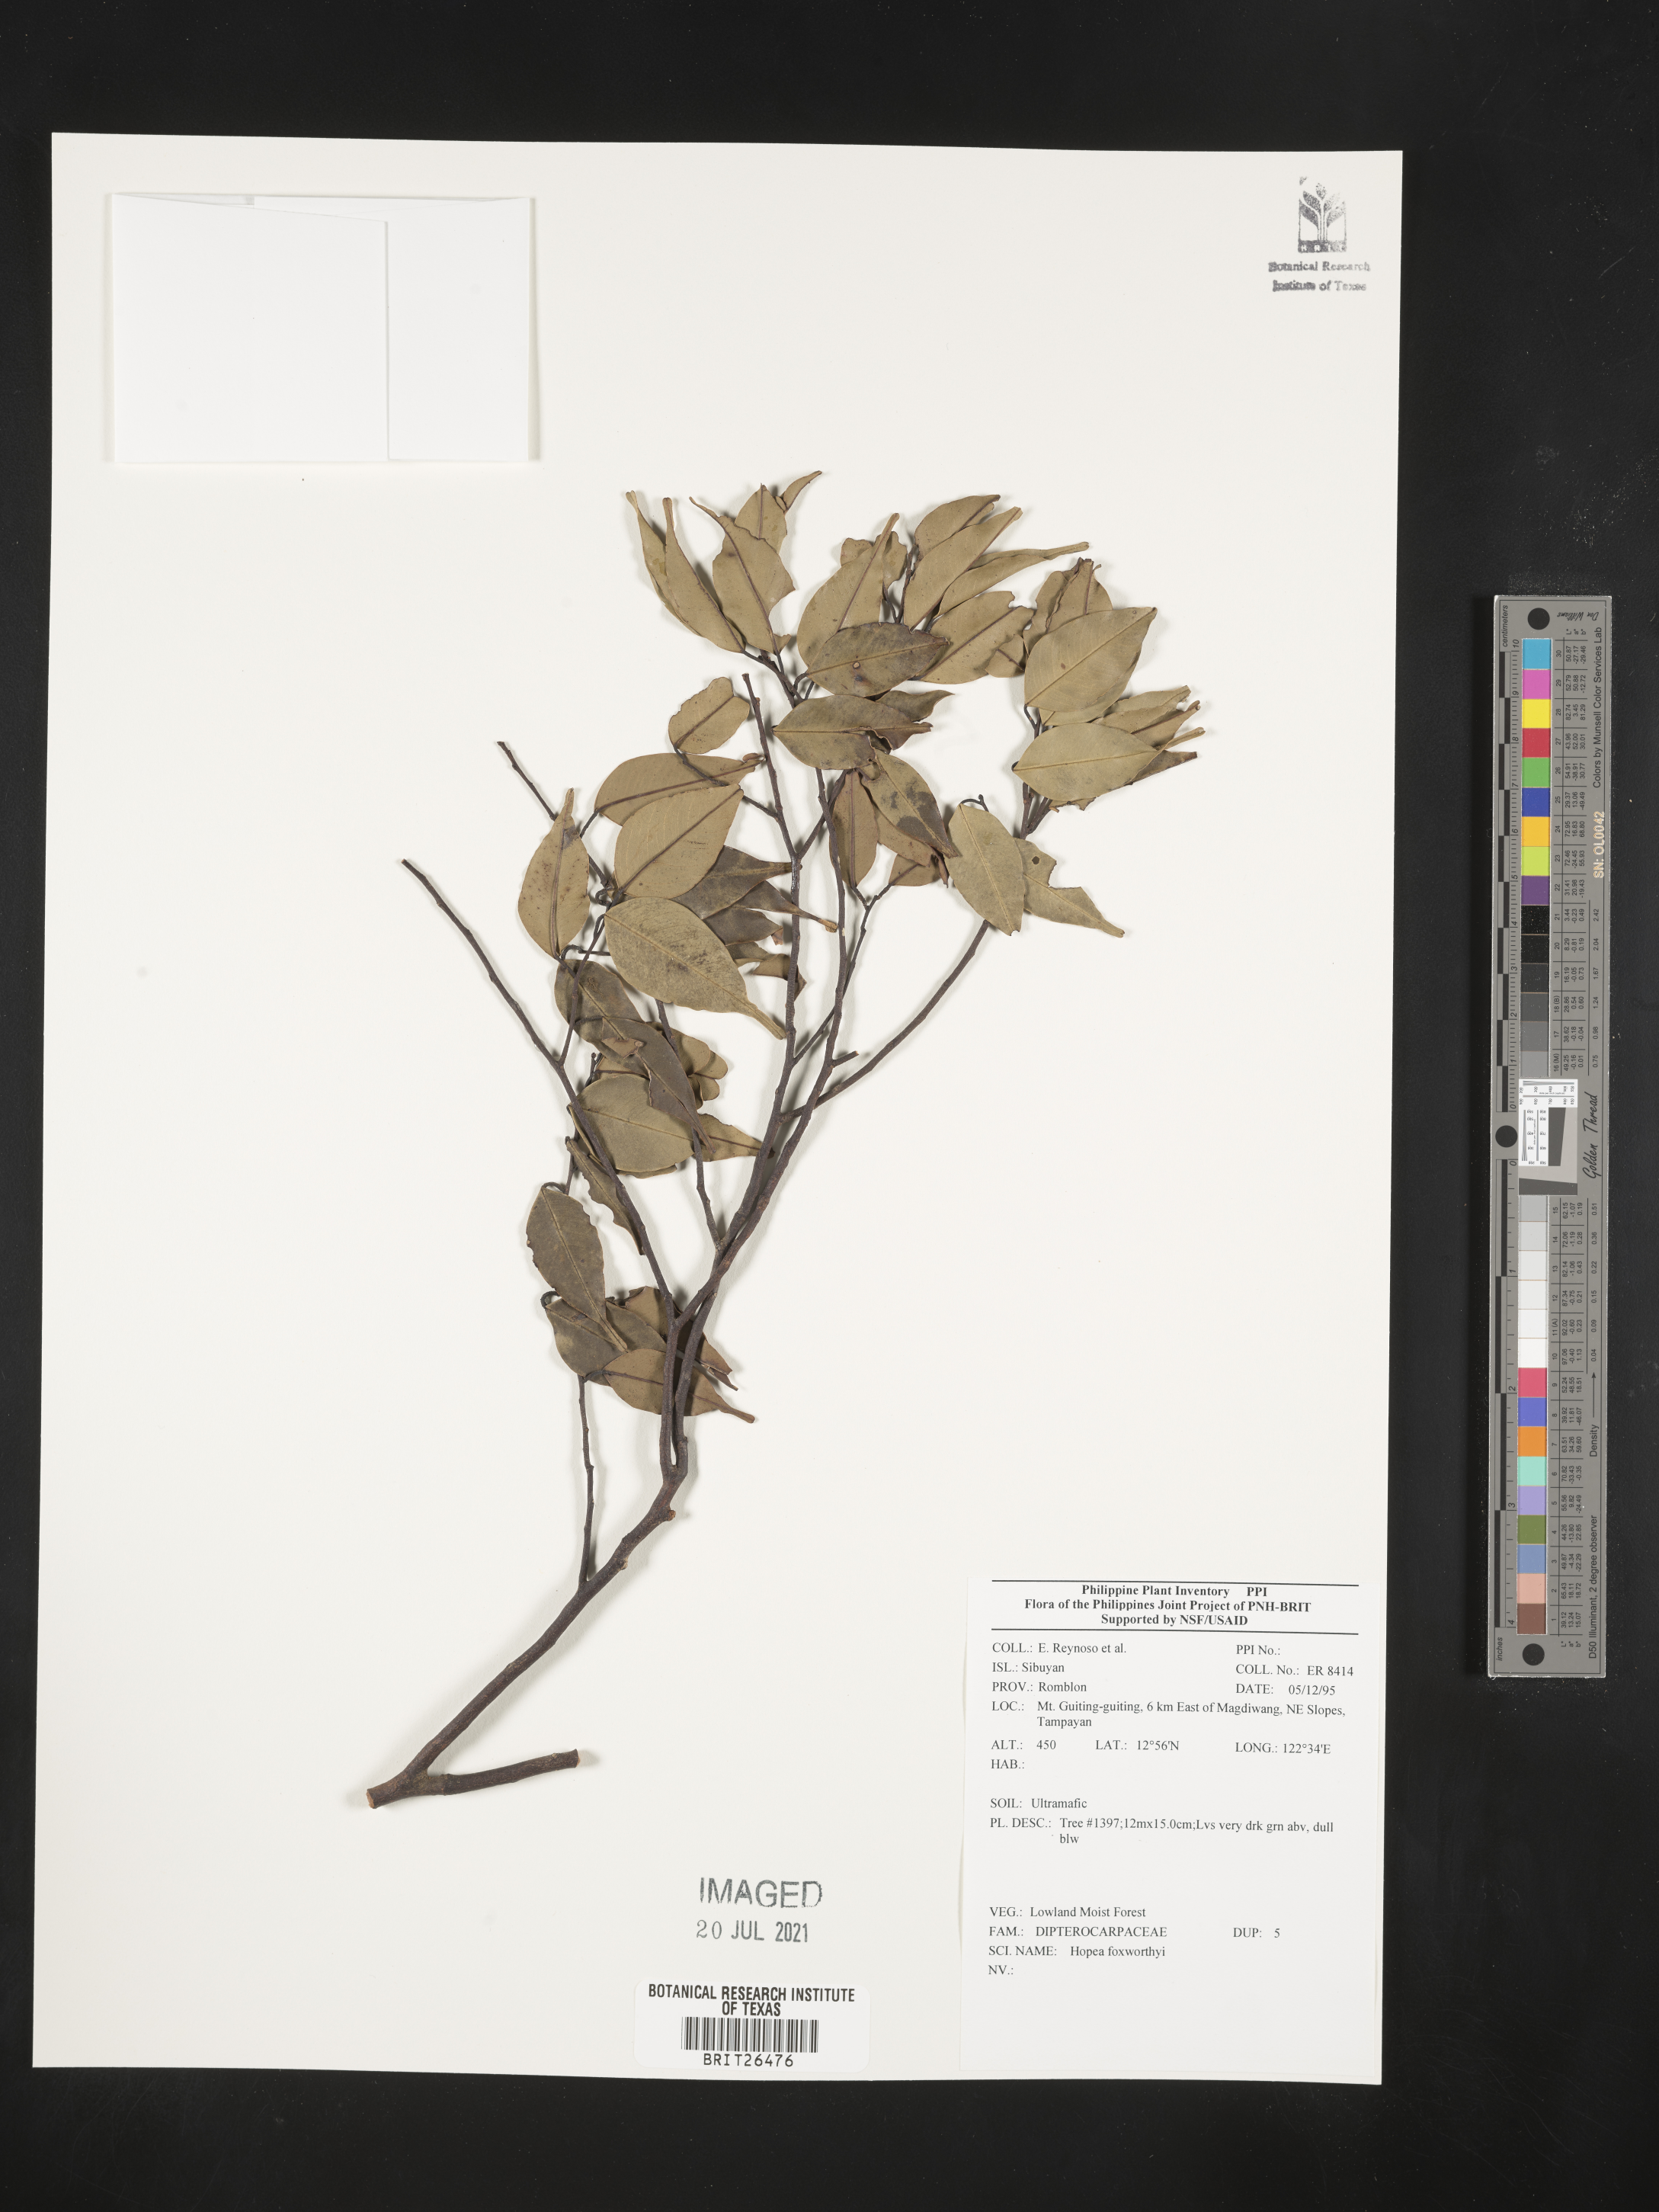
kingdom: Plantae
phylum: Tracheophyta
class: Magnoliopsida
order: Malvales
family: Dipterocarpaceae
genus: Hopea
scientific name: Hopea foxworthyi
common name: Dalingdingan
